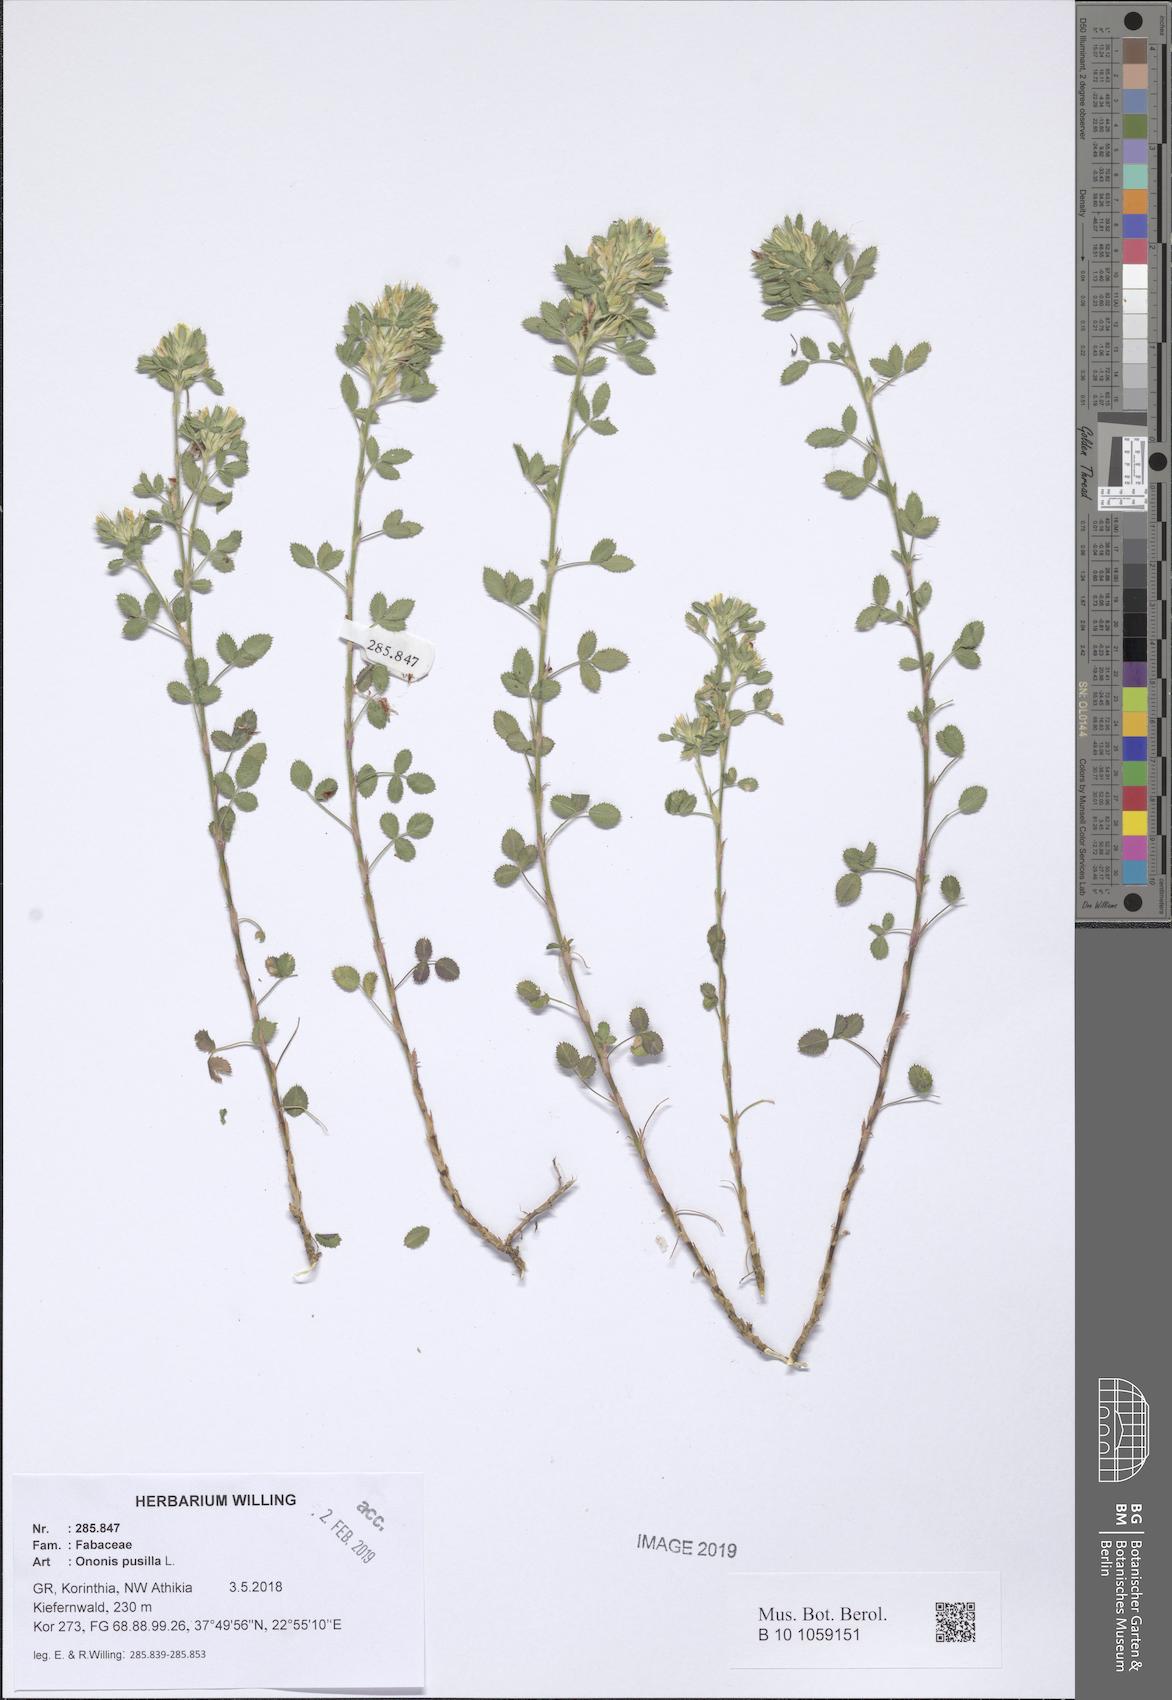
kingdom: Plantae
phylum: Tracheophyta
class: Magnoliopsida
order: Fabales
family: Fabaceae
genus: Ononis
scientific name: Ononis pusilla
